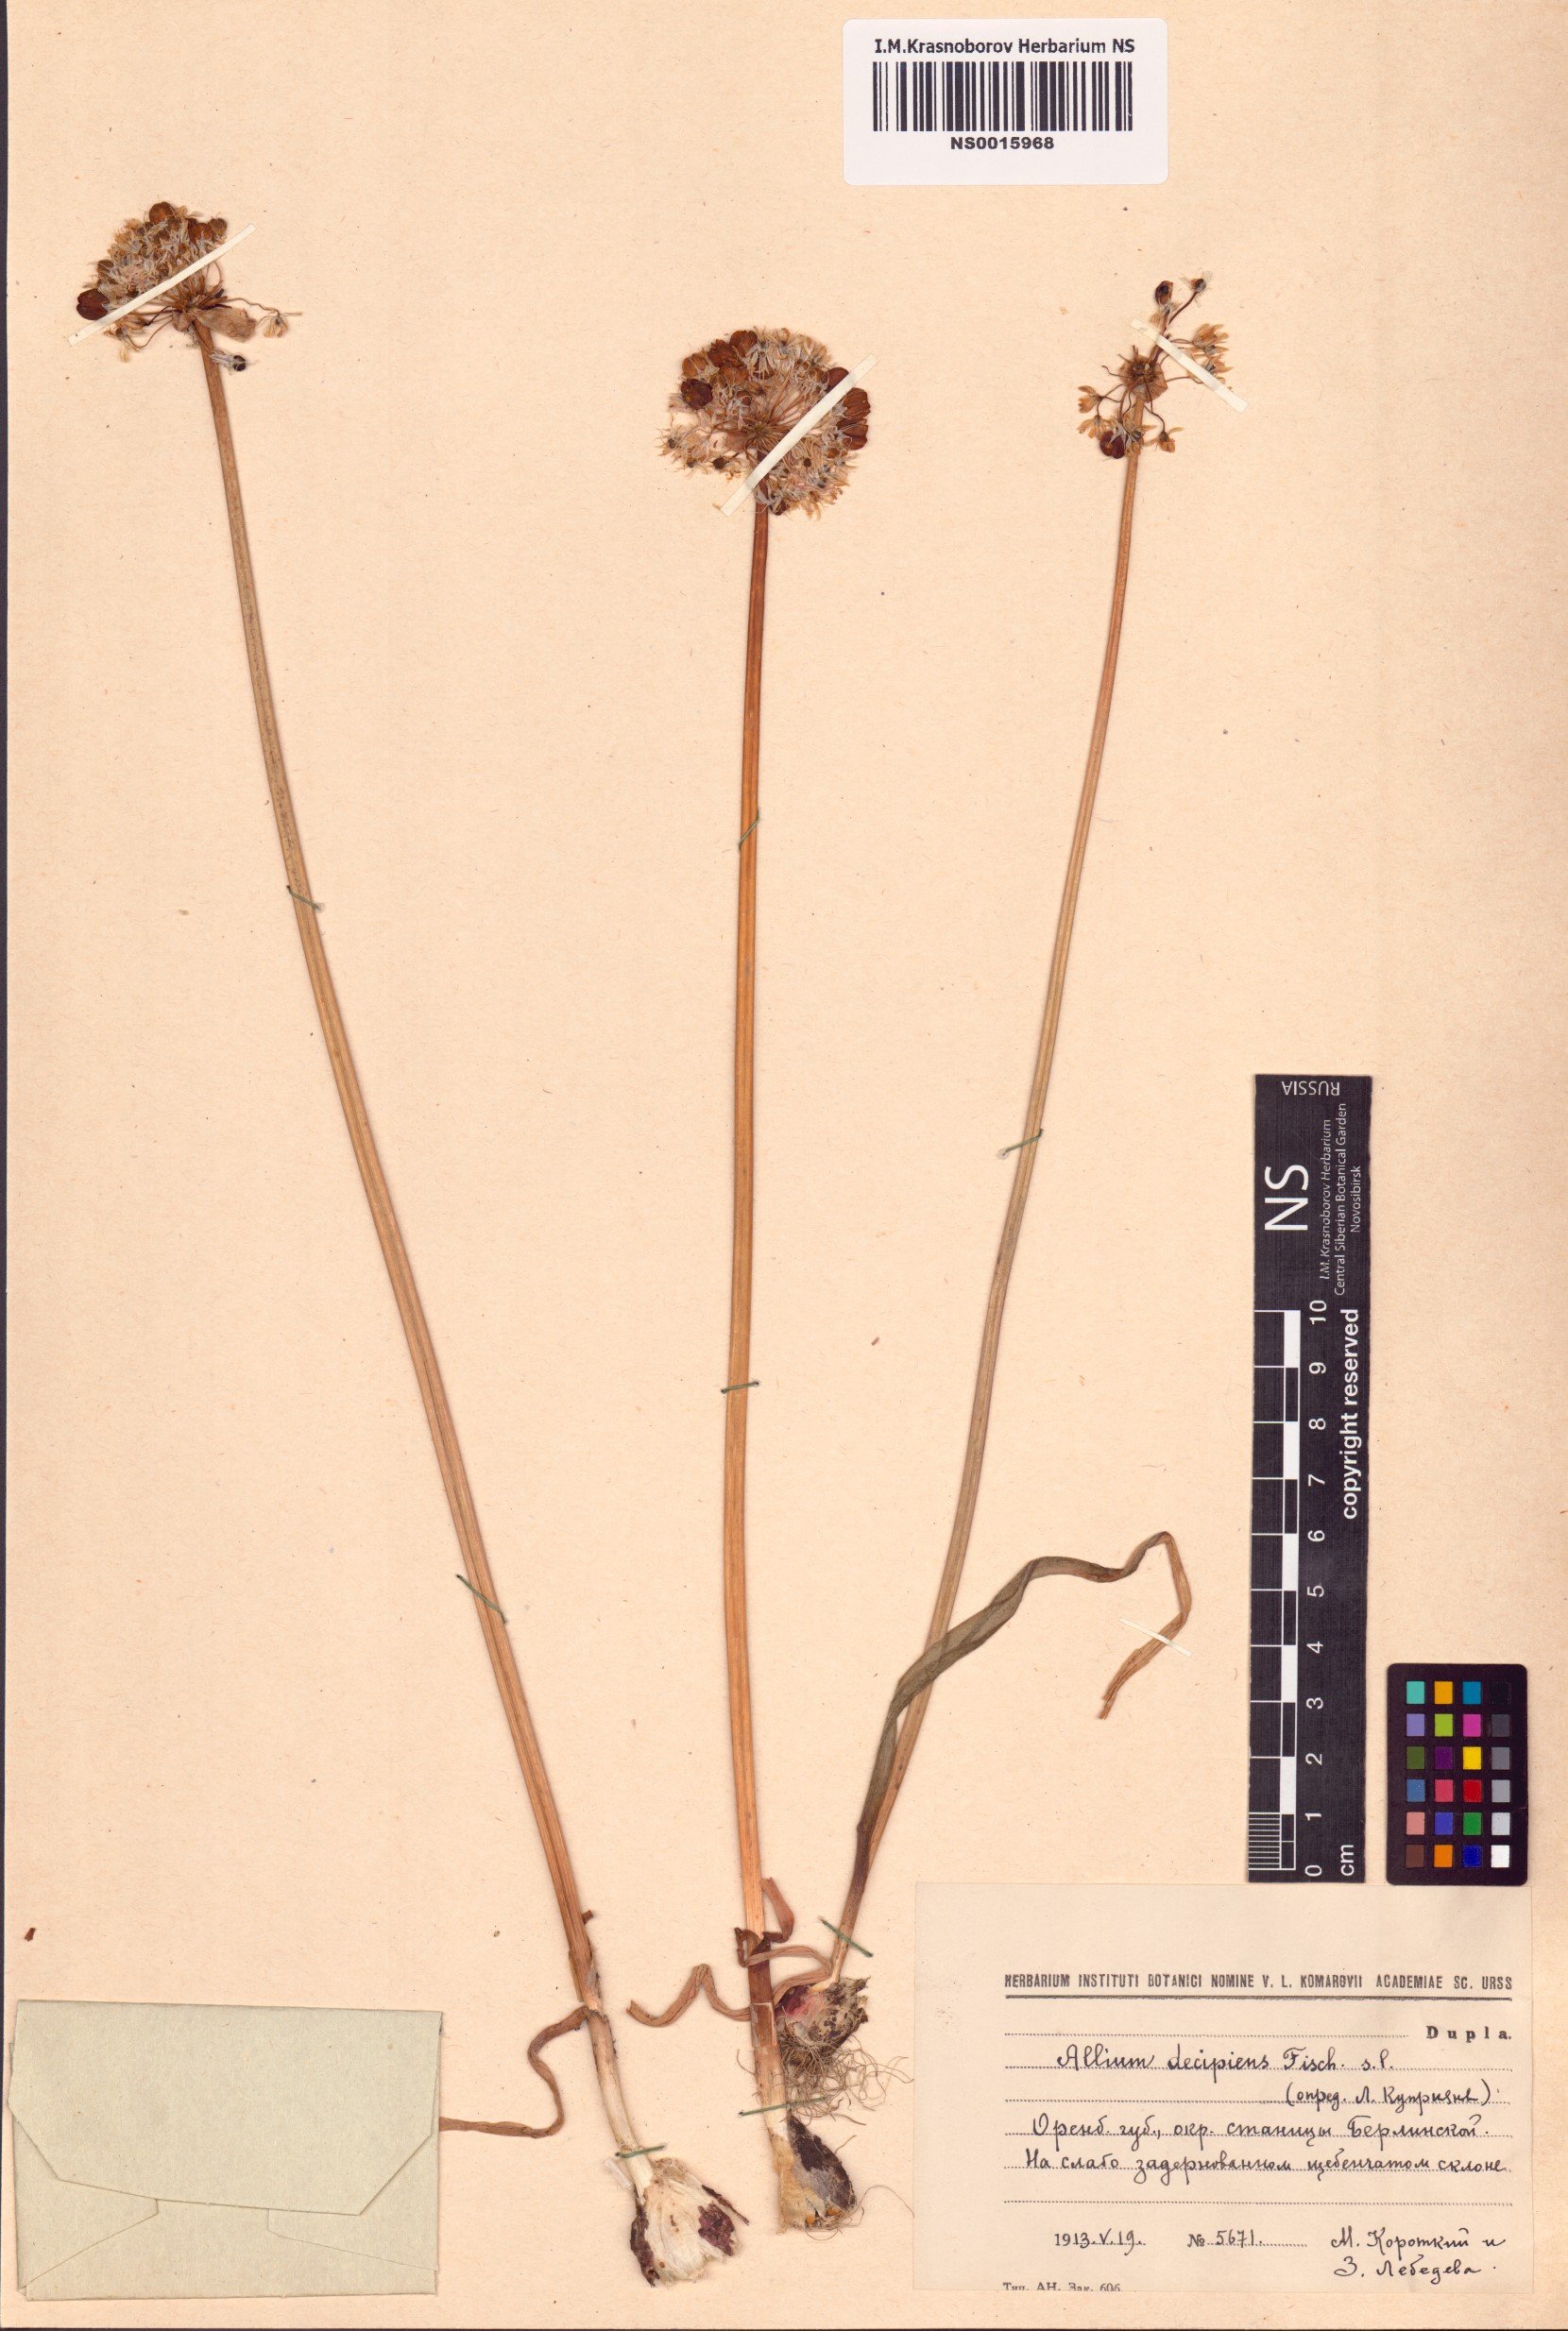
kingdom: Plantae
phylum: Tracheophyta
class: Liliopsida
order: Asparagales
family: Amaryllidaceae
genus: Allium
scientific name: Allium decipiens
